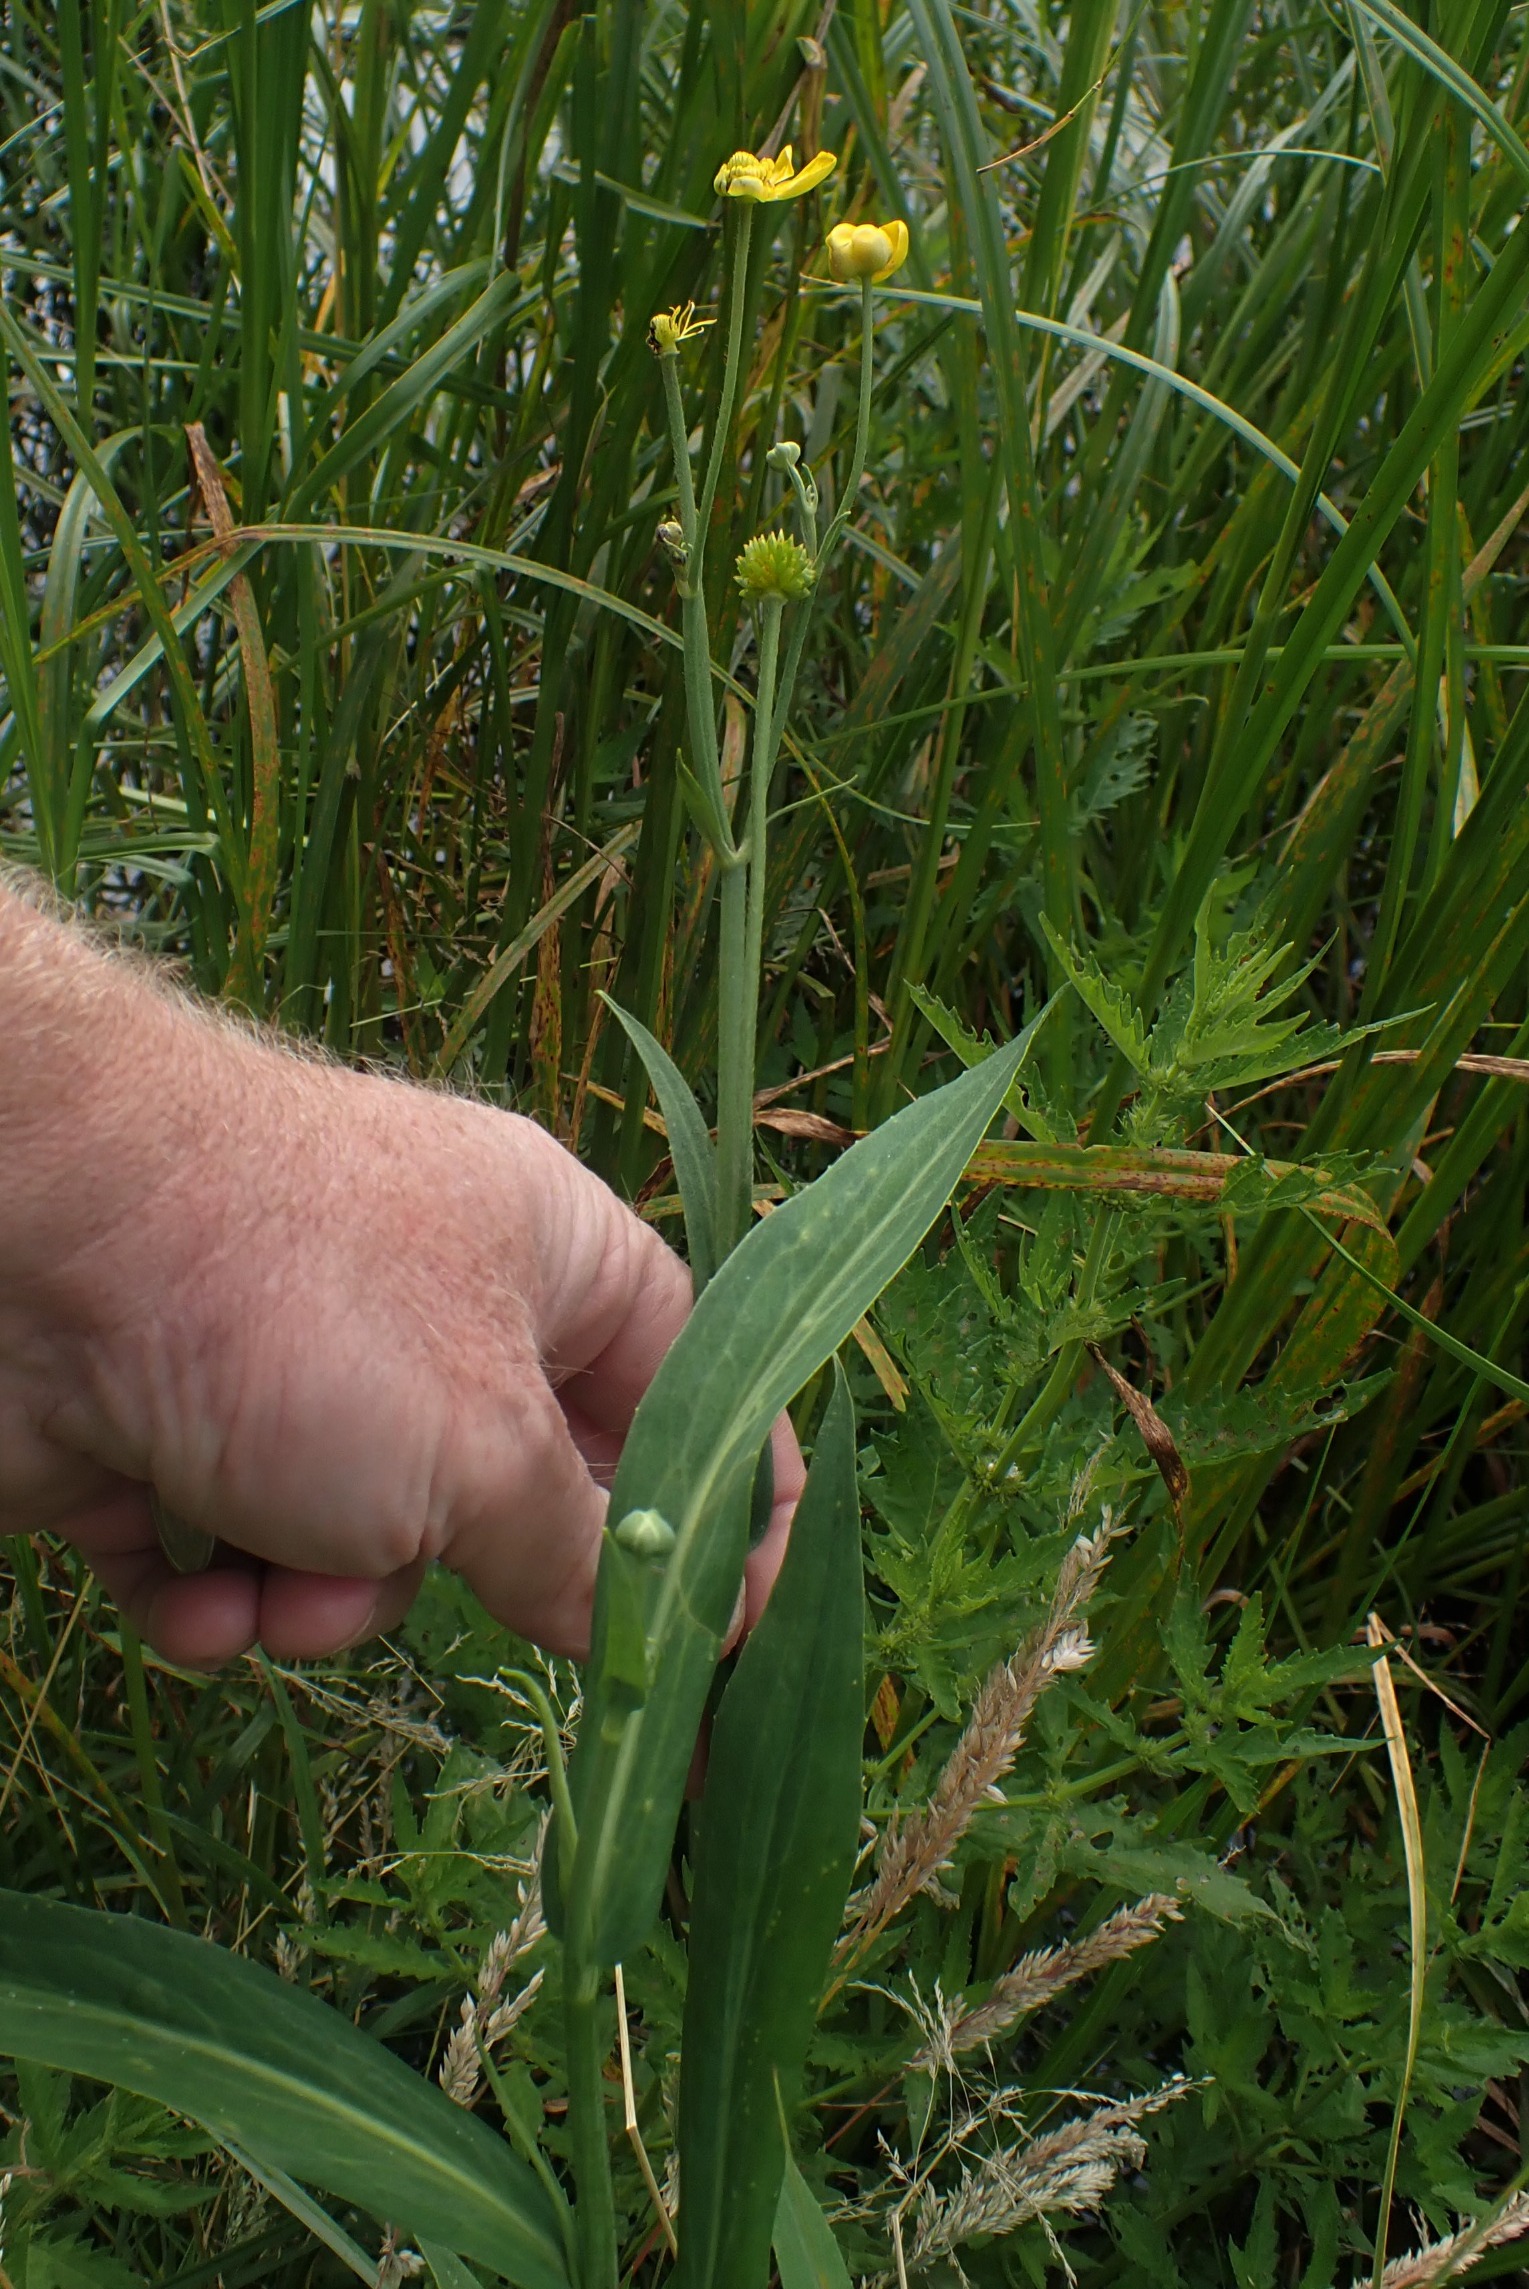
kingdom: Plantae
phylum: Tracheophyta
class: Magnoliopsida
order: Ranunculales
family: Ranunculaceae
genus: Ranunculus
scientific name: Ranunculus lingua
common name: Langbladet ranunkel
